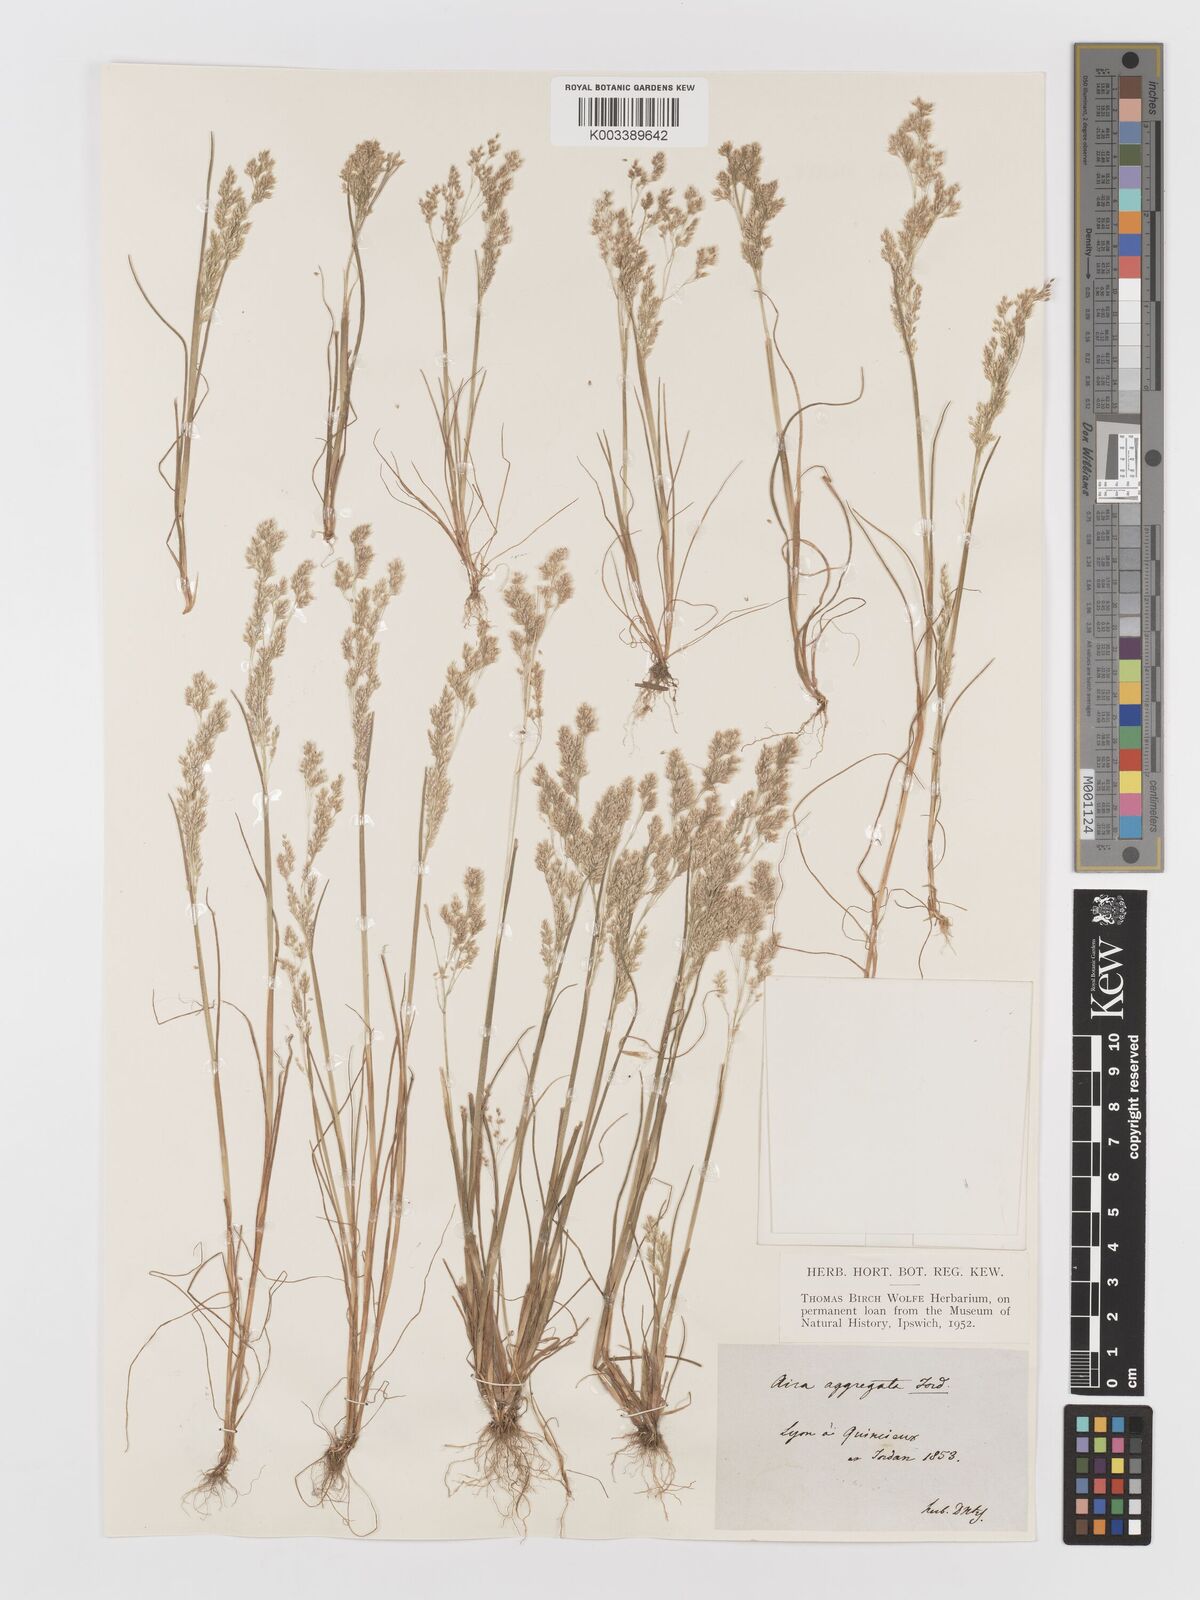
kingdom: Plantae
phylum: Tracheophyta
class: Liliopsida
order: Poales
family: Poaceae
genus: Aira
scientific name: Aira caryophyllea
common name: Silver hairgrass
